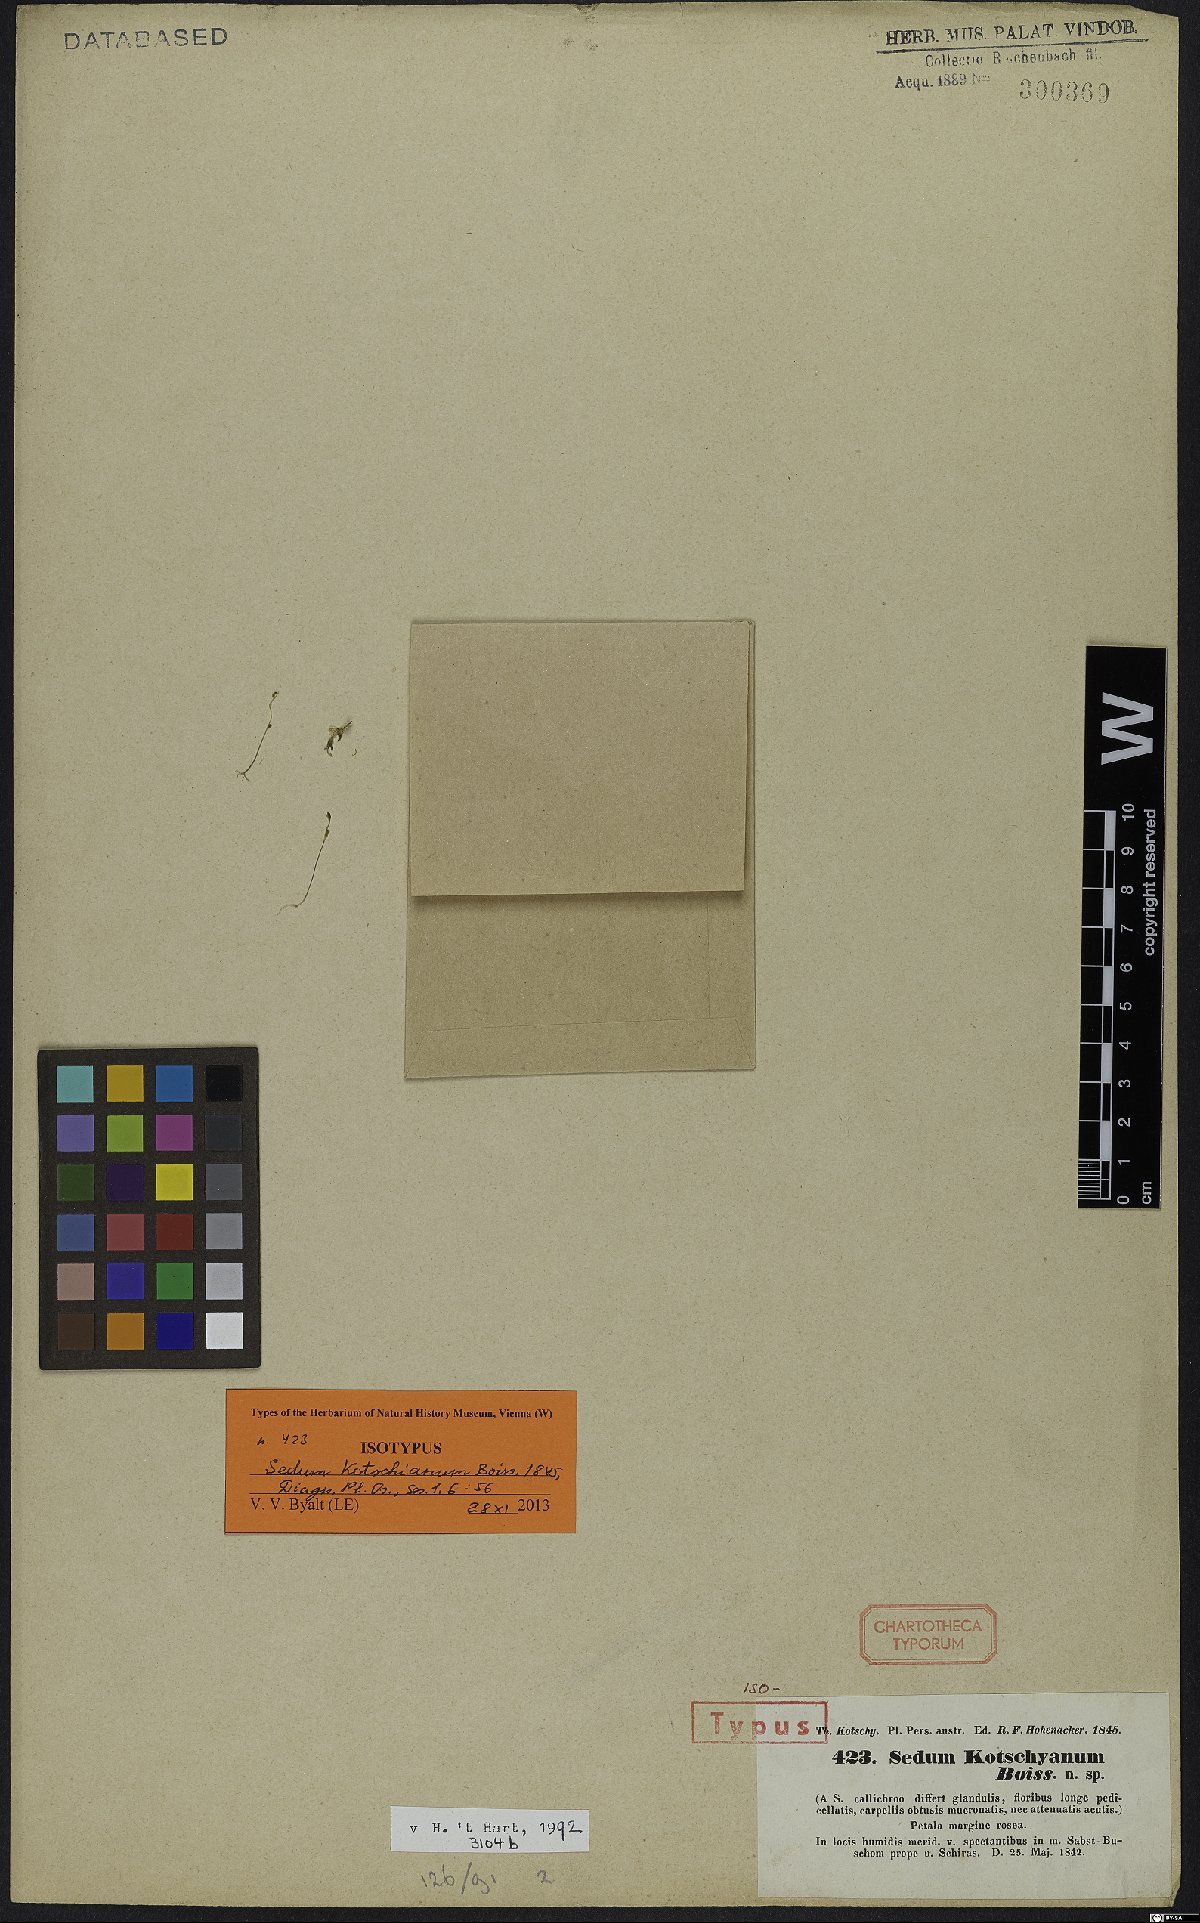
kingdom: Plantae
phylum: Tracheophyta
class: Magnoliopsida
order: Saxifragales
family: Crassulaceae
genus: Sedum
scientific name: Sedum kotschyanum
